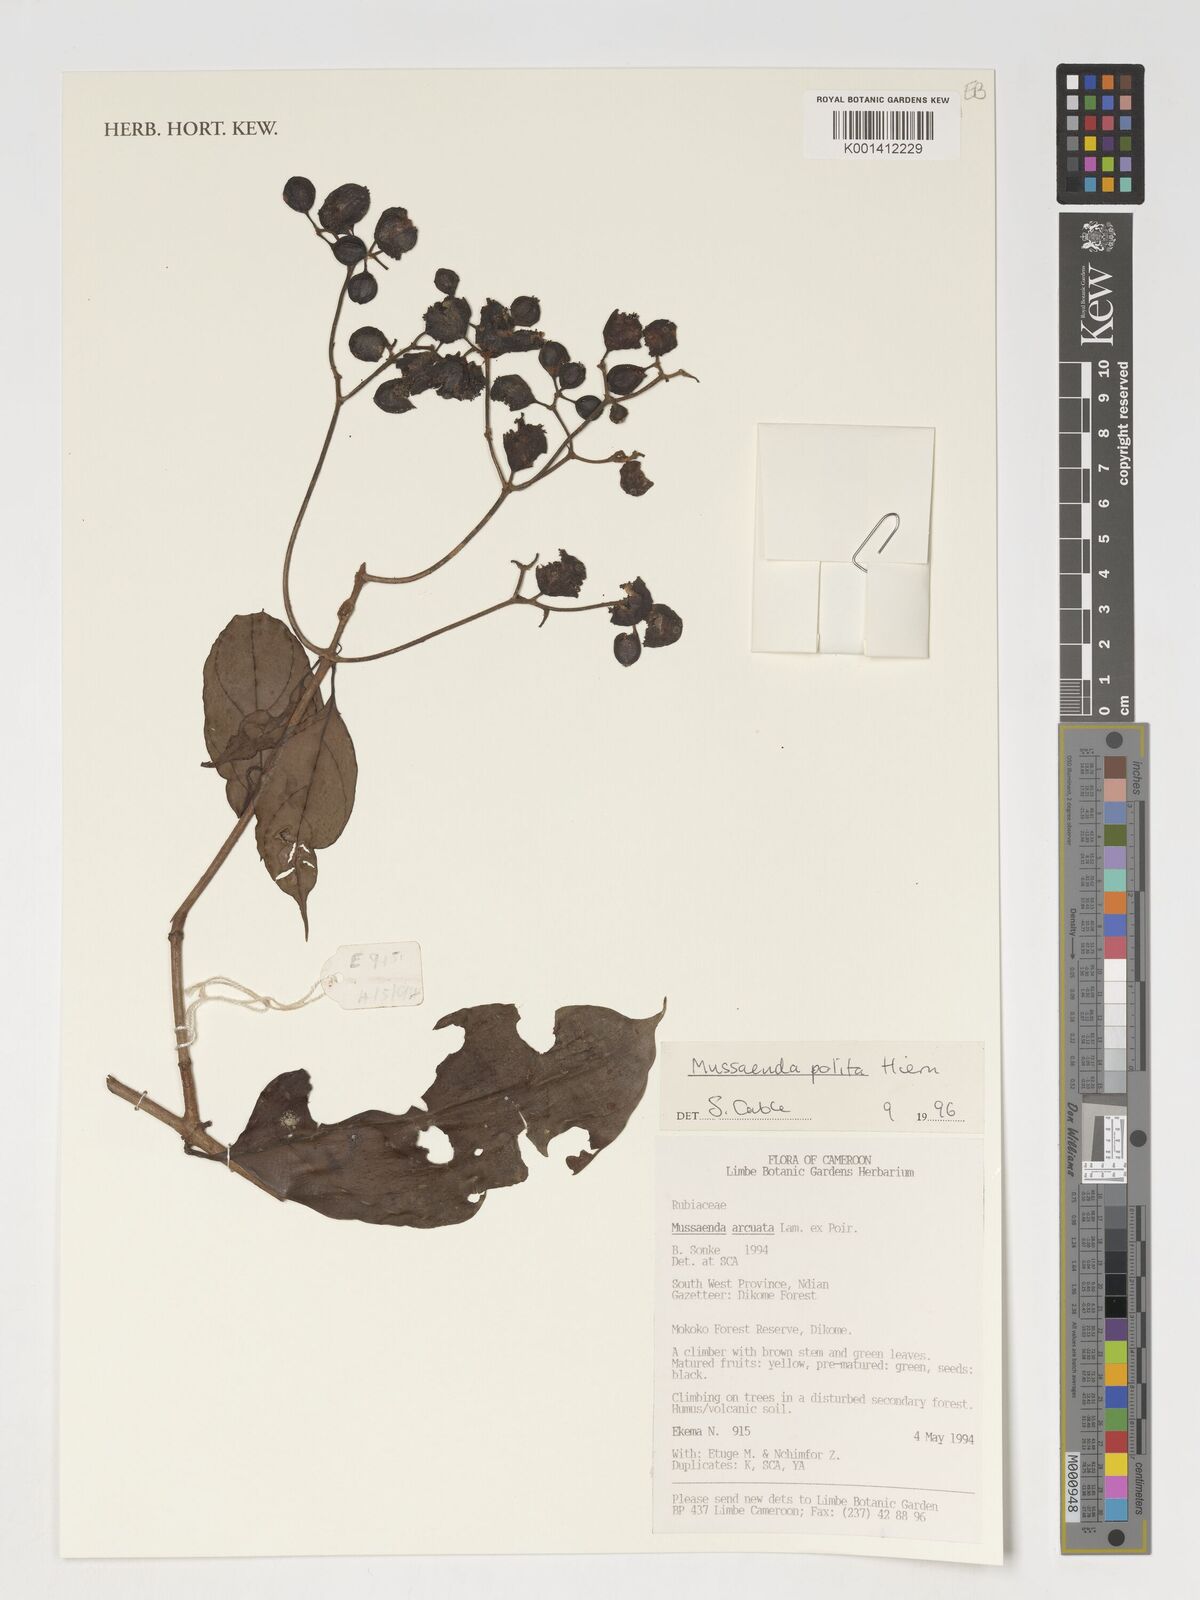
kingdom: Plantae
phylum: Tracheophyta
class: Magnoliopsida
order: Gentianales
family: Rubiaceae
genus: Mussaenda
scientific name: Mussaenda polita
